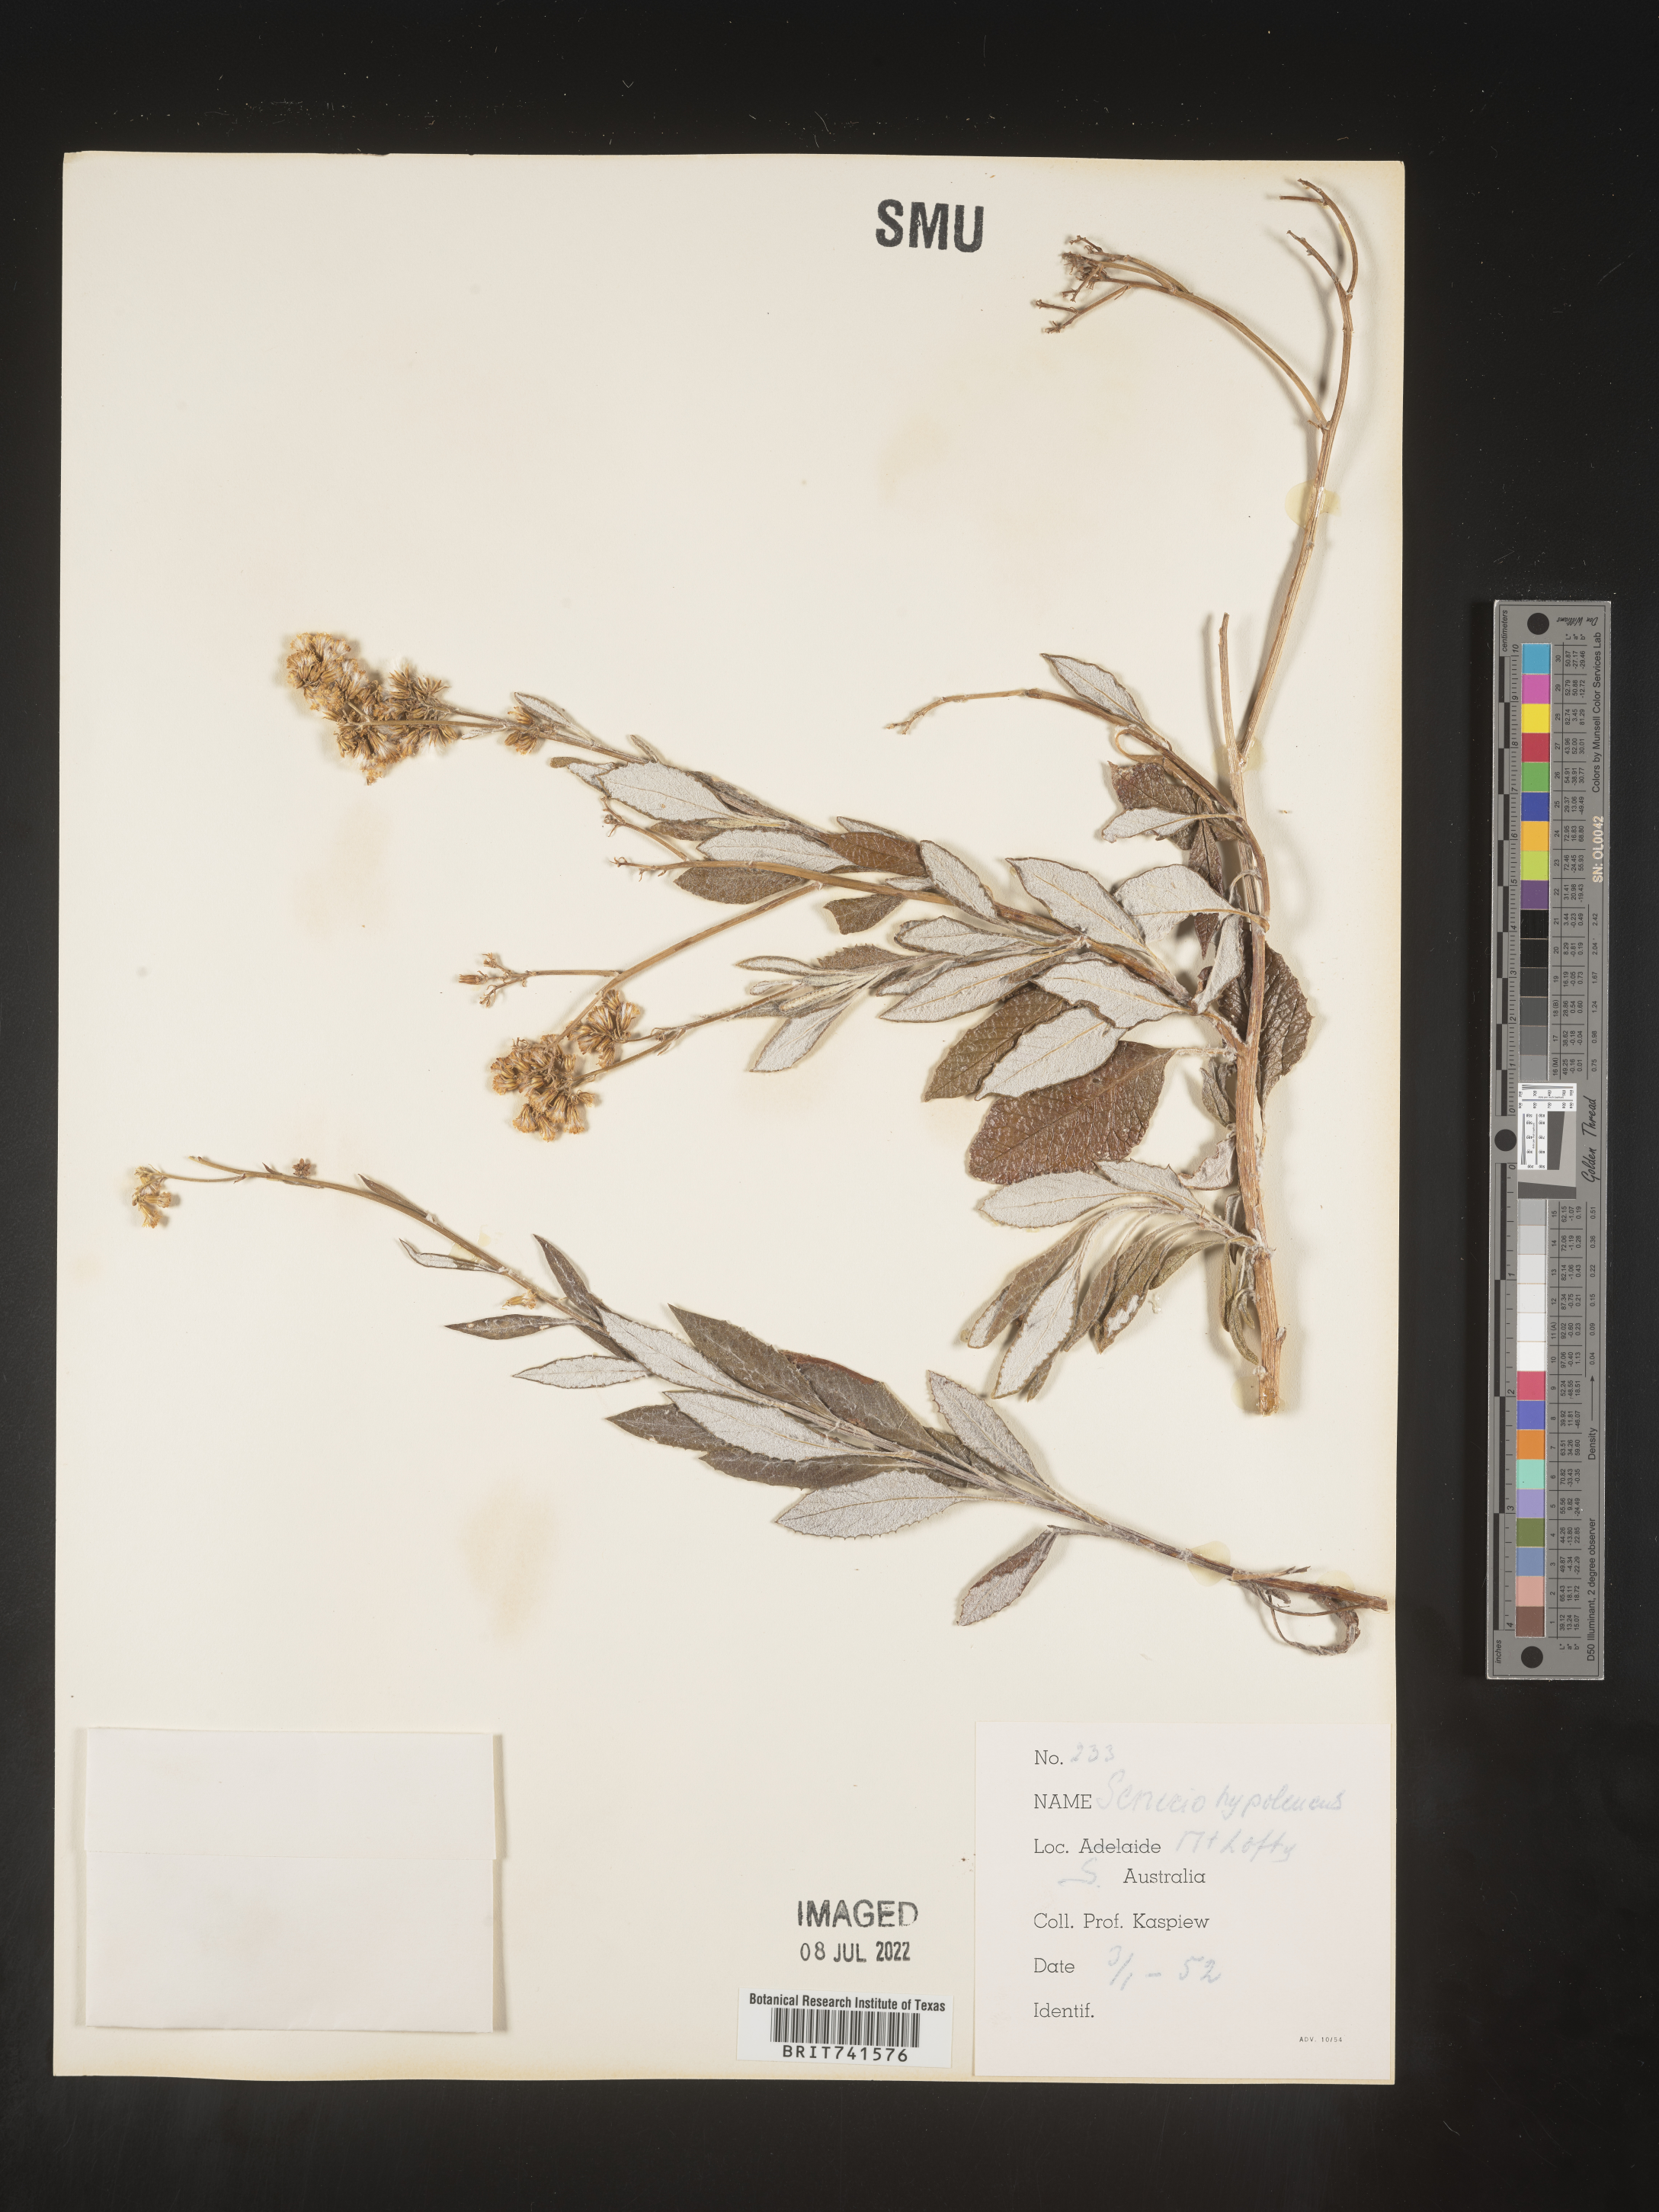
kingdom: Plantae
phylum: Tracheophyta
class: Magnoliopsida
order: Asterales
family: Asteraceae
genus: Senecio
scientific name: Senecio
